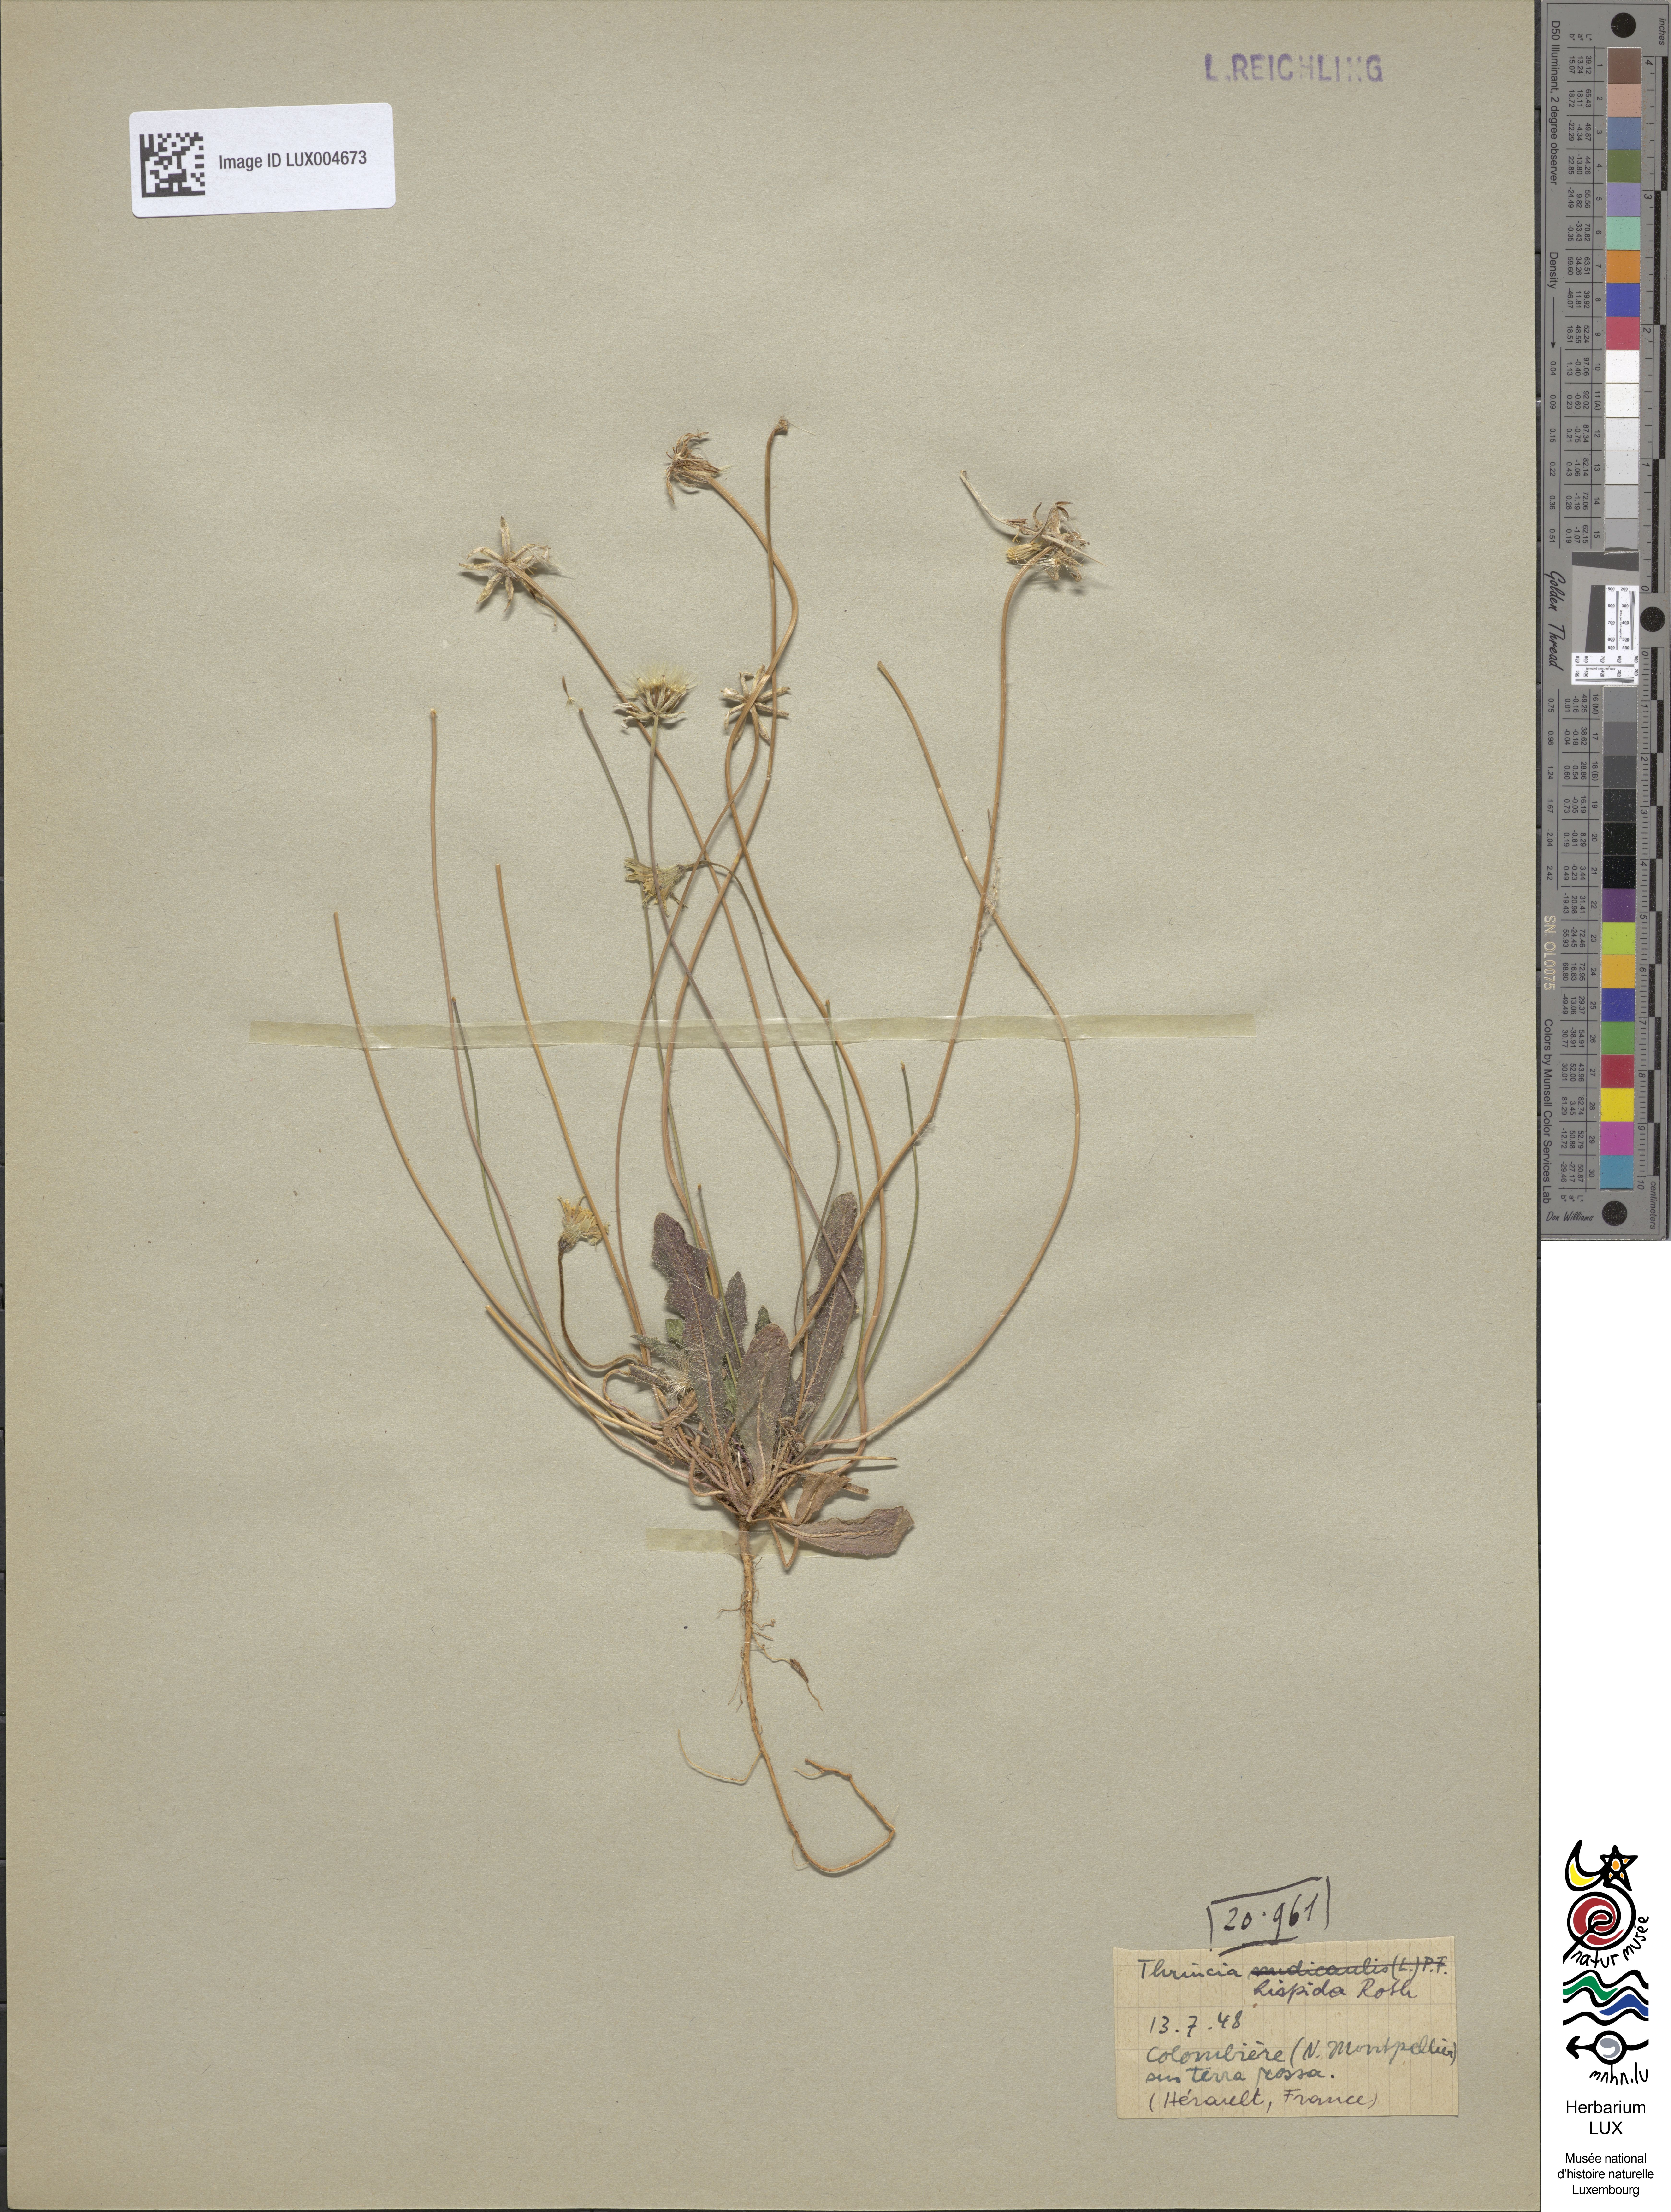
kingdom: Plantae
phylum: Tracheophyta
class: Magnoliopsida
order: Asterales
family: Asteraceae
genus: Thrincia
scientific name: Thrincia hispida
